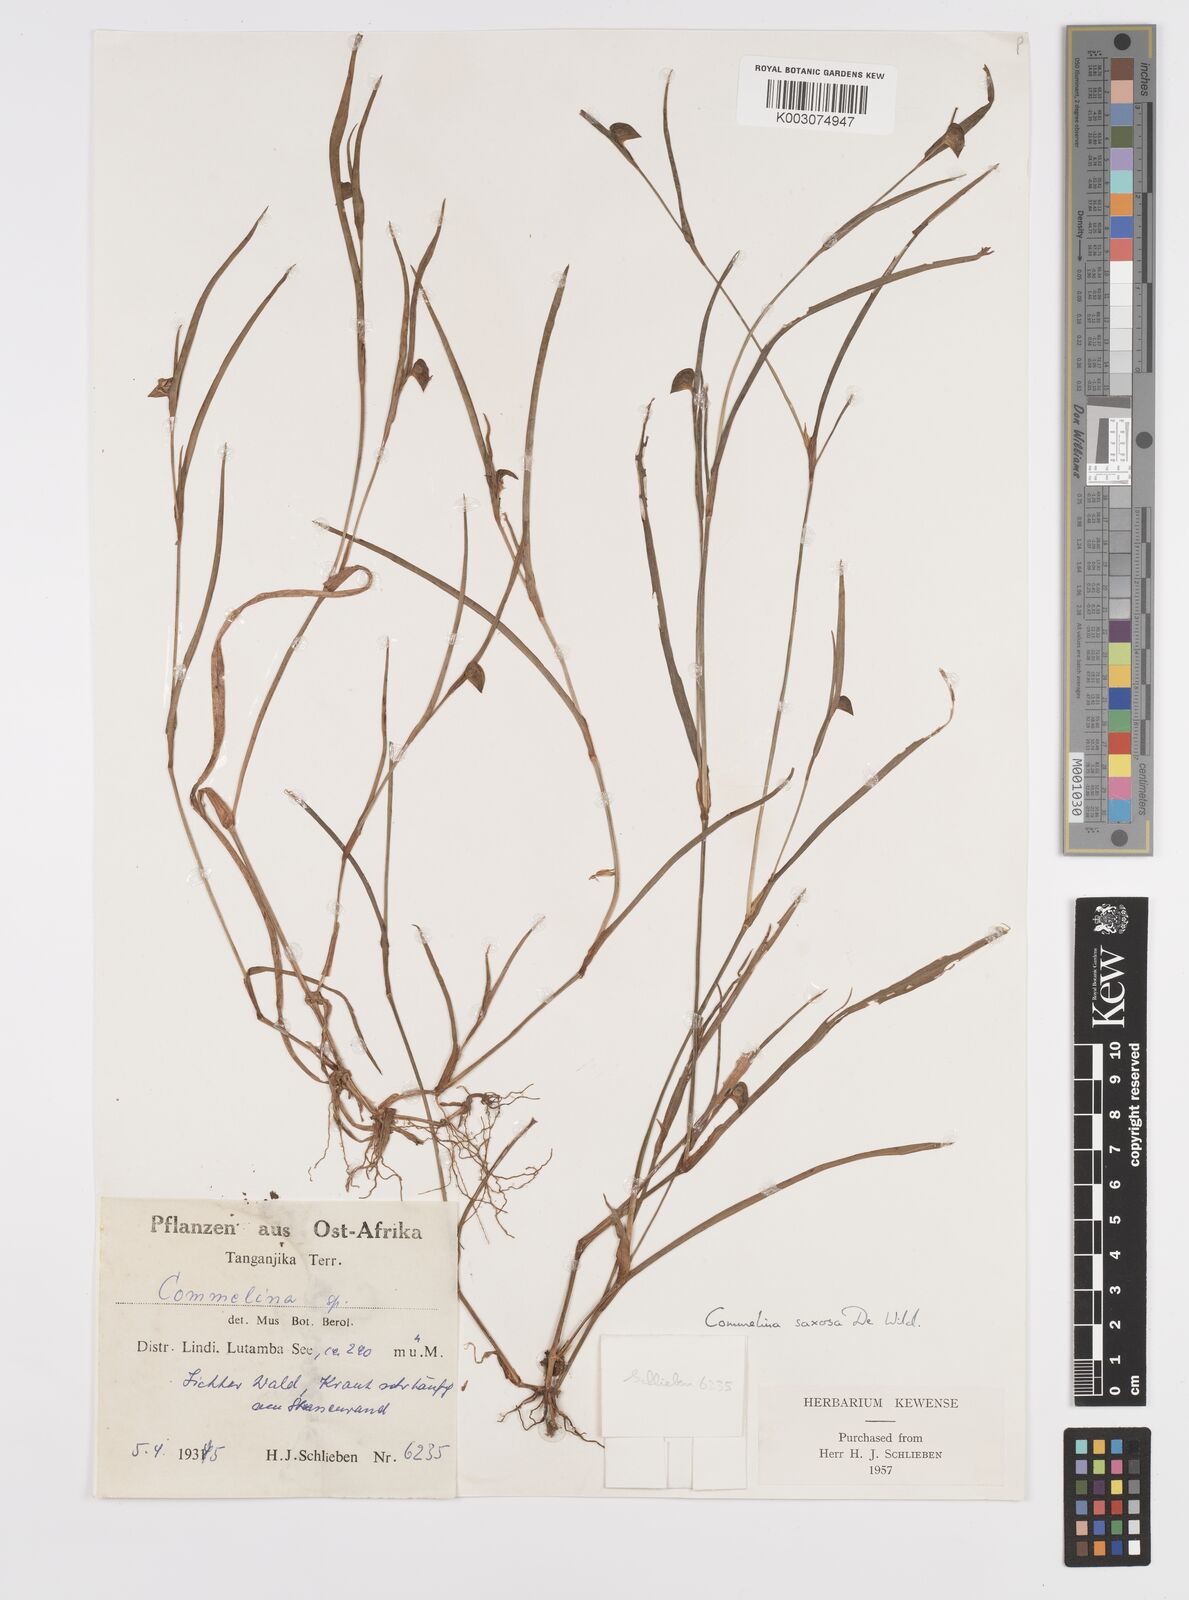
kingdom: Plantae
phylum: Tracheophyta
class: Liliopsida
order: Commelinales
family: Commelinaceae
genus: Commelina
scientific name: Commelina saxosa
